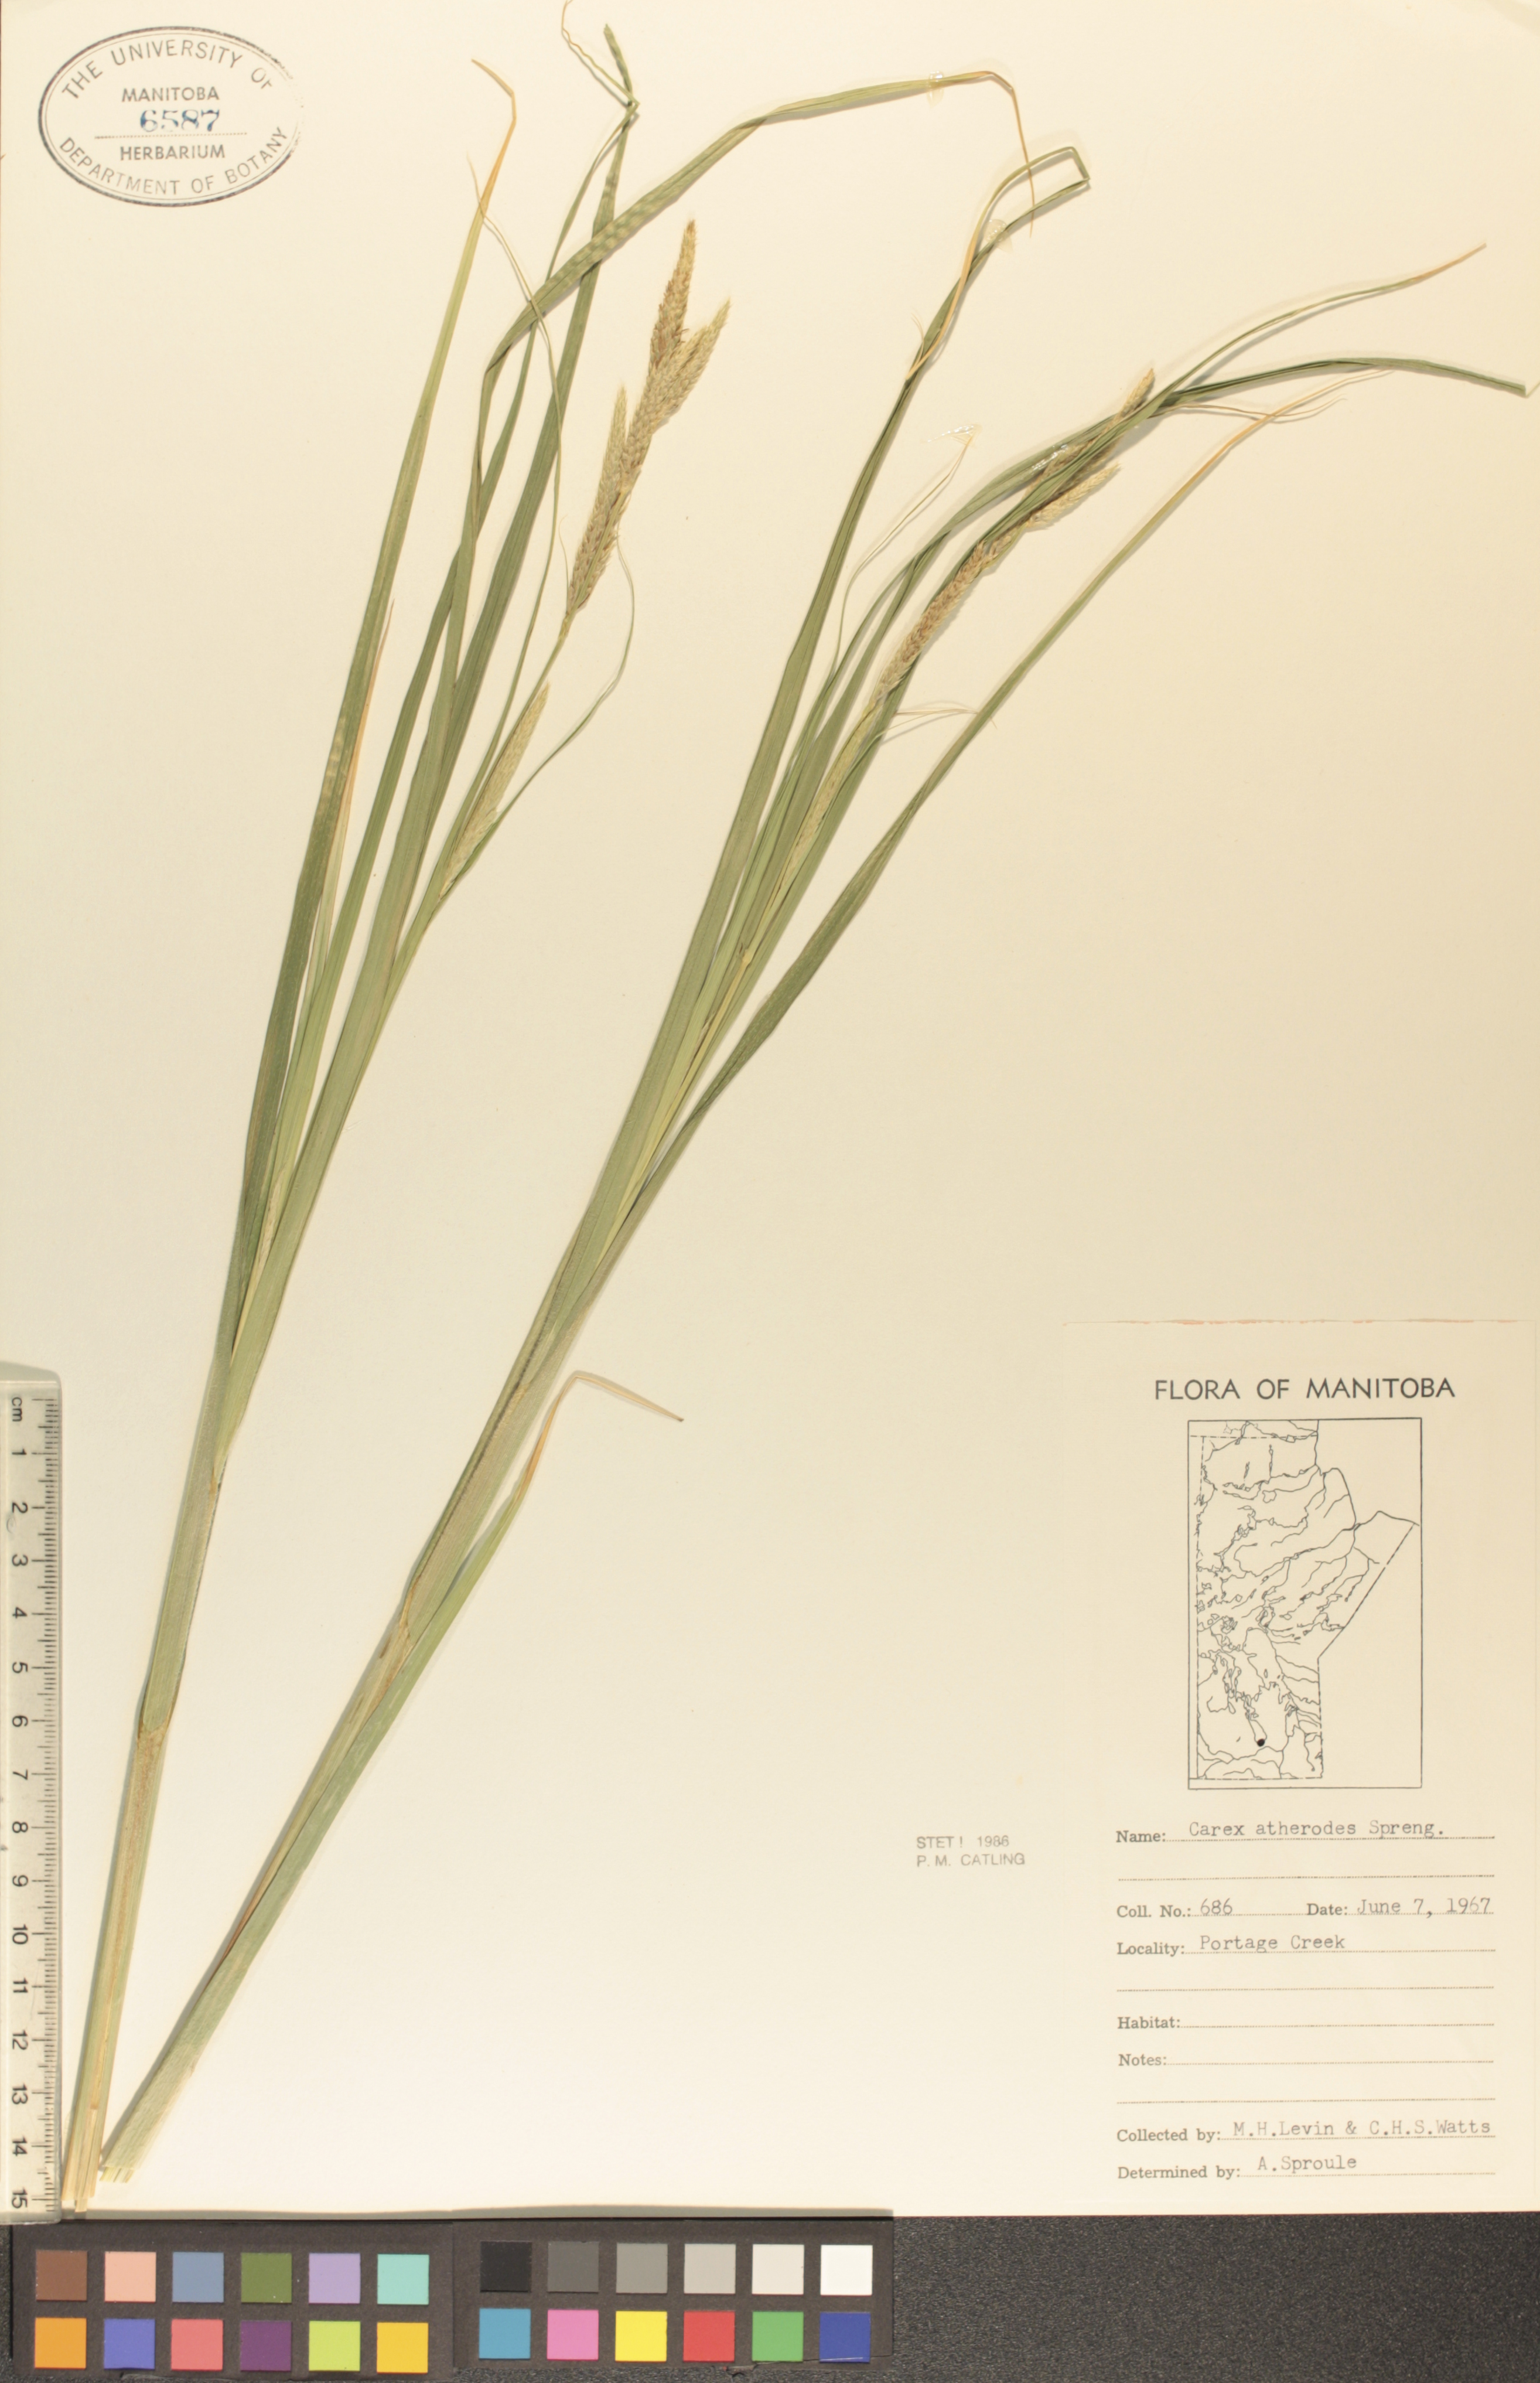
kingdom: Plantae
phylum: Tracheophyta
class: Liliopsida
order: Poales
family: Cyperaceae
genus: Carex
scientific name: Carex atherodes
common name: Wheat sedge
